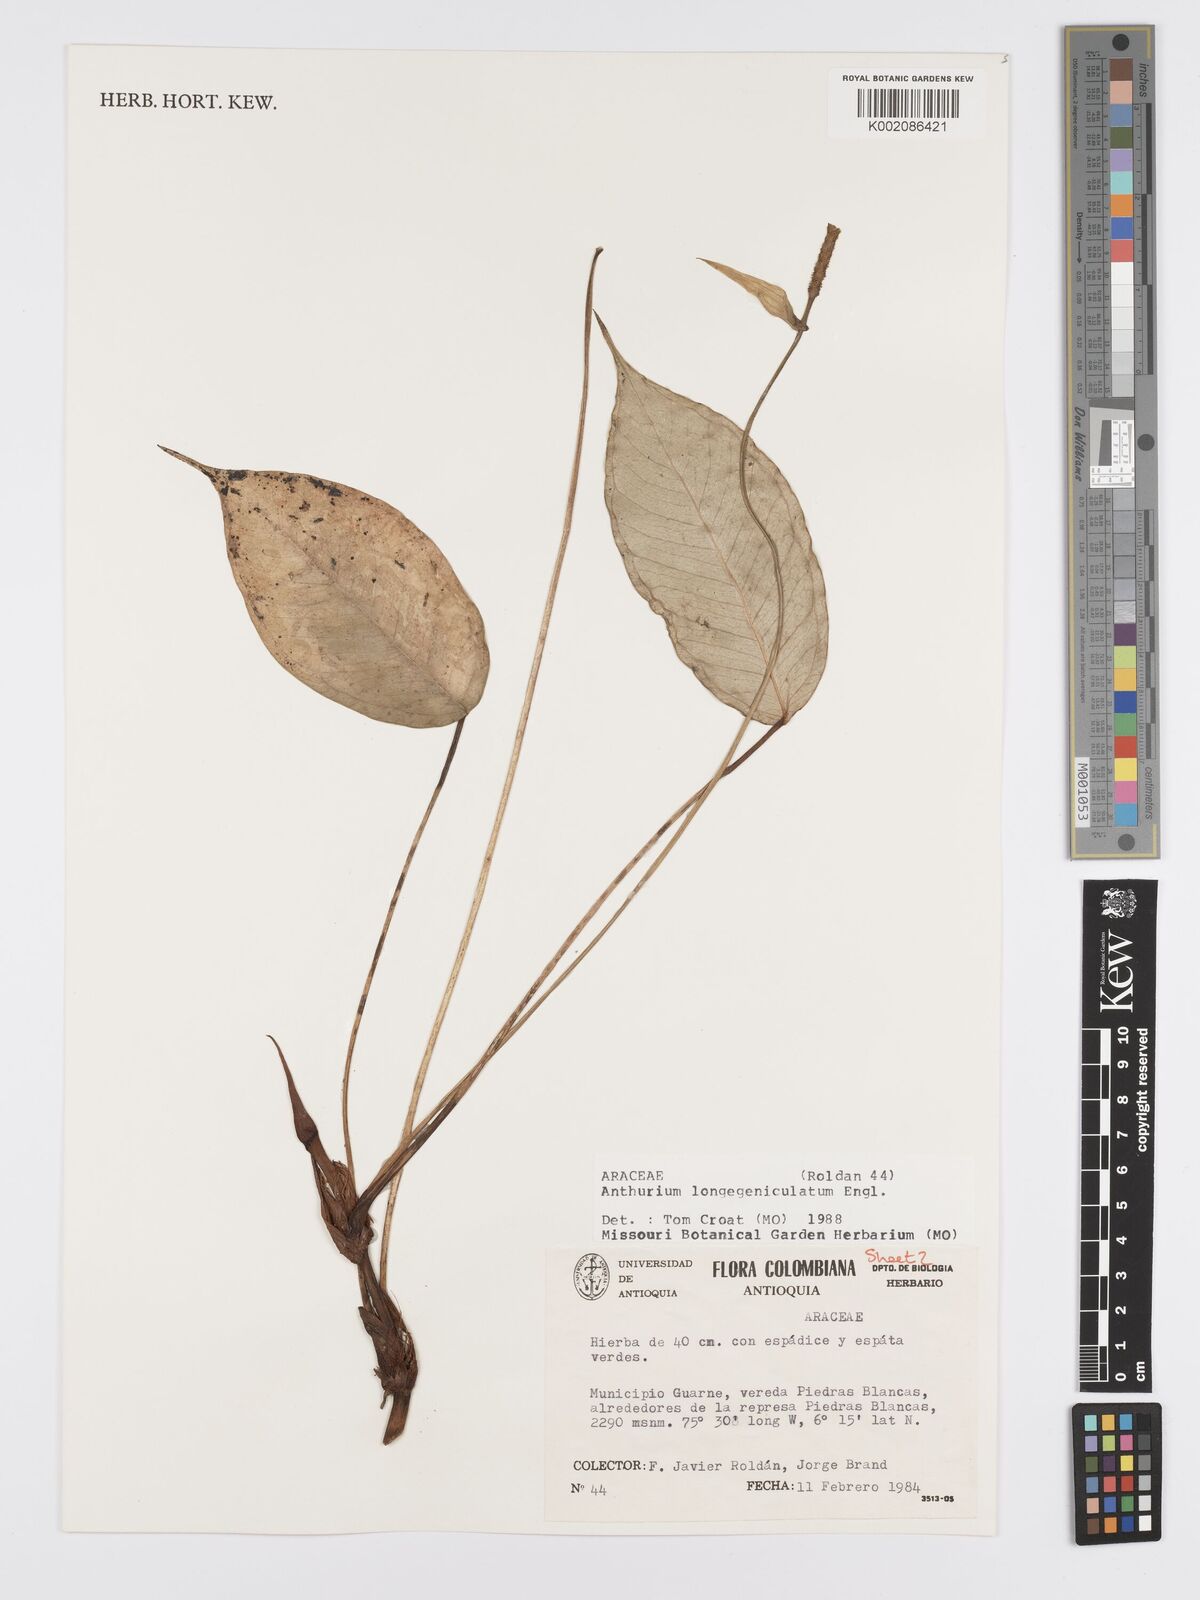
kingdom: Plantae
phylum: Tracheophyta
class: Liliopsida
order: Alismatales
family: Araceae
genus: Anthurium
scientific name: Anthurium longegeniculatum
